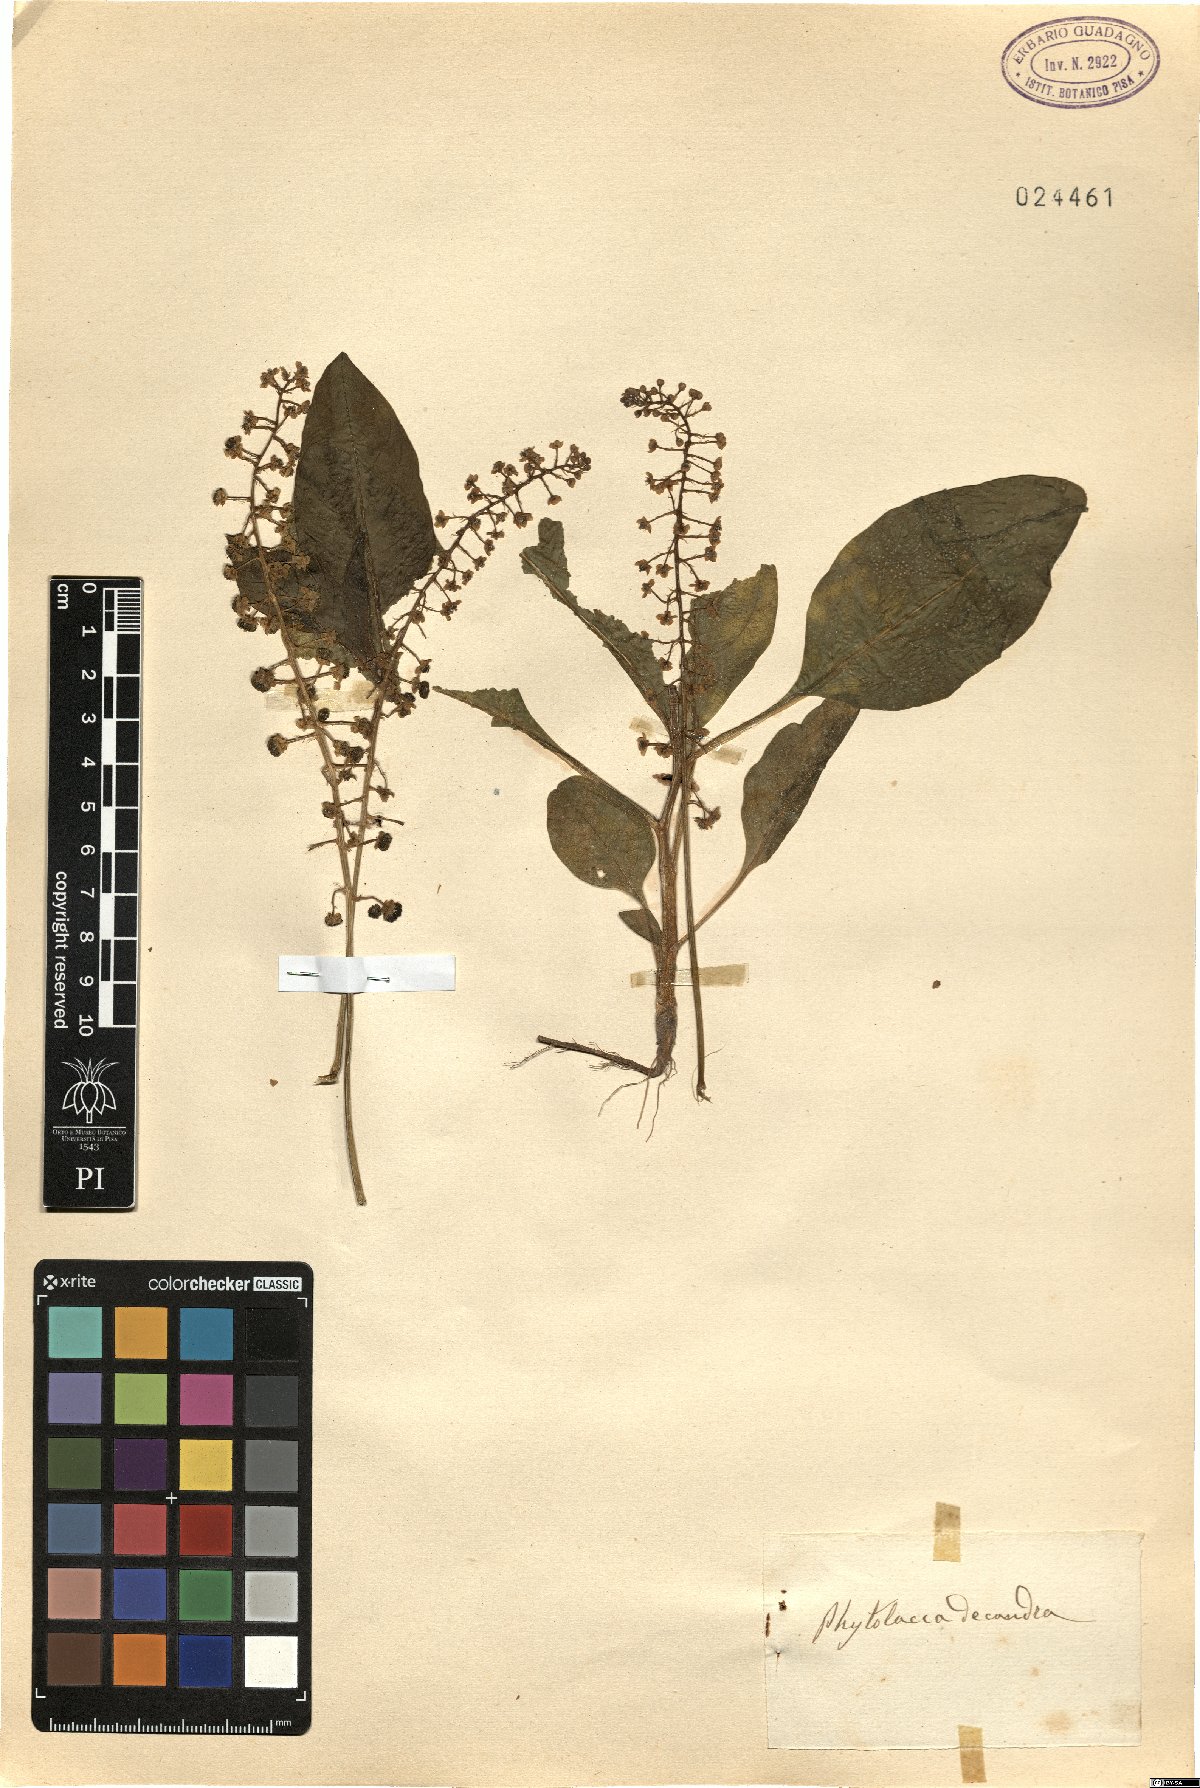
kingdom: Plantae
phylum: Tracheophyta
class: Magnoliopsida
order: Caryophyllales
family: Phytolaccaceae
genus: Phytolacca
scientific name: Phytolacca americana
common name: American pokeweed
